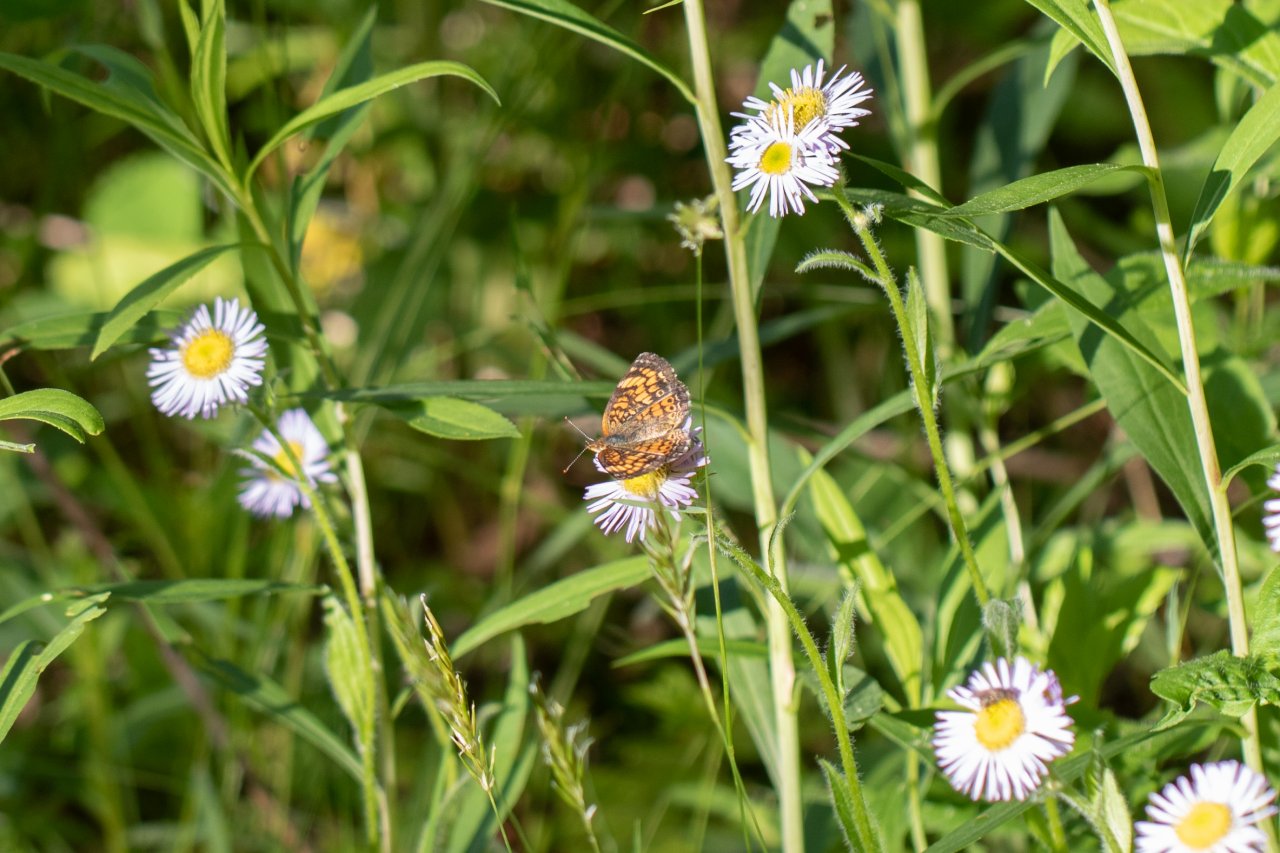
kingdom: Animalia
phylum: Arthropoda
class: Insecta
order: Lepidoptera
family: Nymphalidae
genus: Phyciodes
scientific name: Phyciodes
